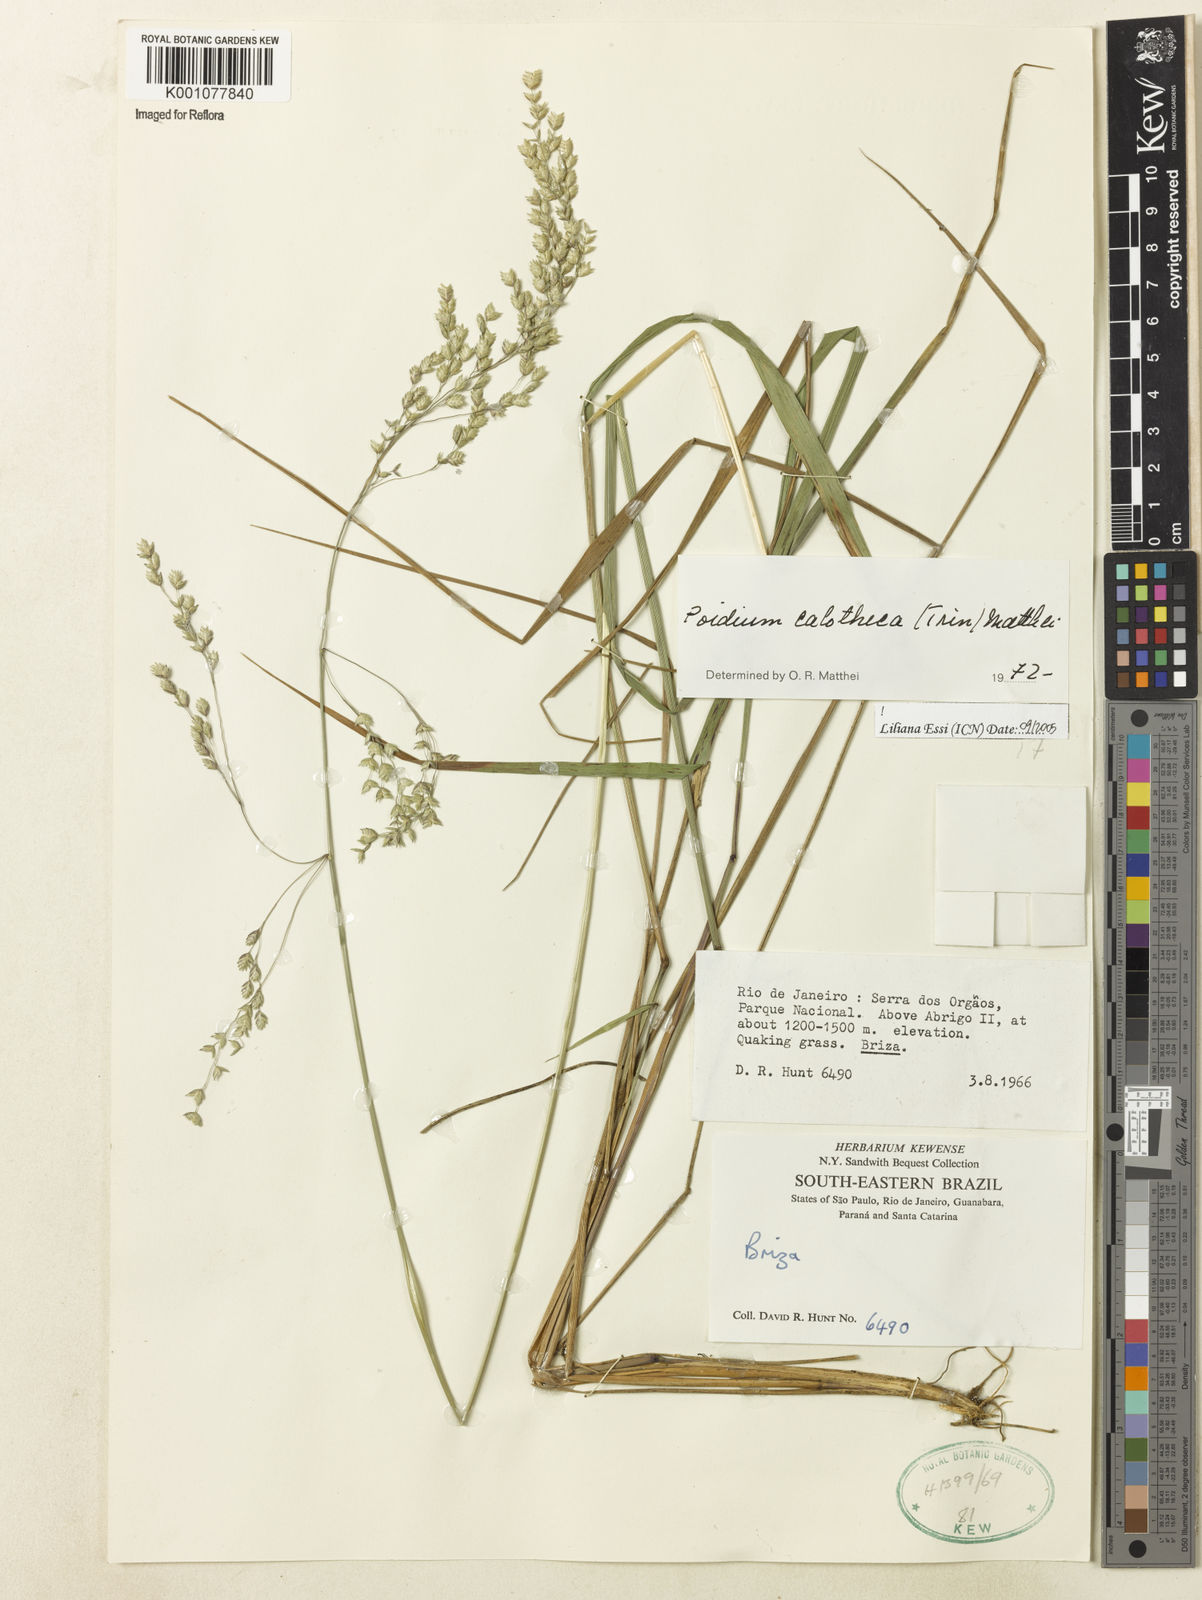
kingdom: Plantae
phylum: Tracheophyta
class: Liliopsida
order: Poales
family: Poaceae
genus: Poidium
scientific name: Poidium calotheca
